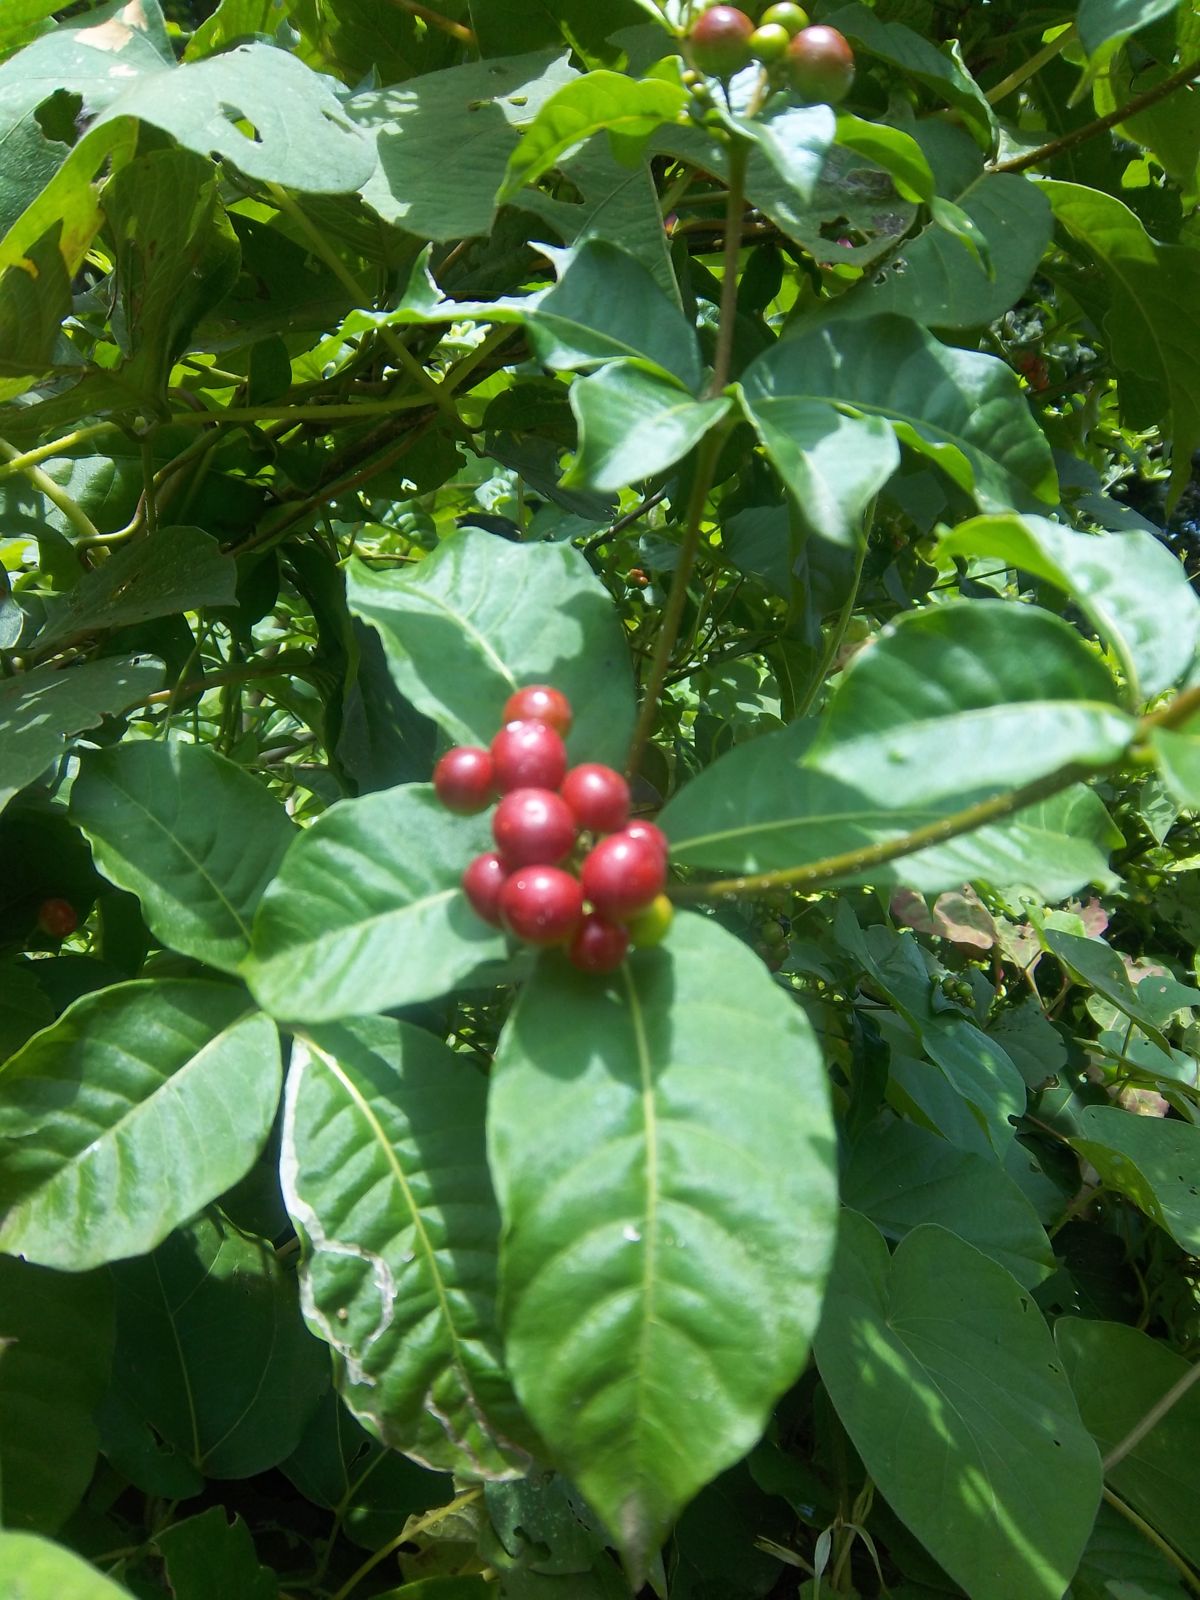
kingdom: Plantae
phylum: Tracheophyta
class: Magnoliopsida
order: Gentianales
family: Apocynaceae
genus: Rauvolfia
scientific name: Rauvolfia tetraphylla
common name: Four-leaf devil-pepper
